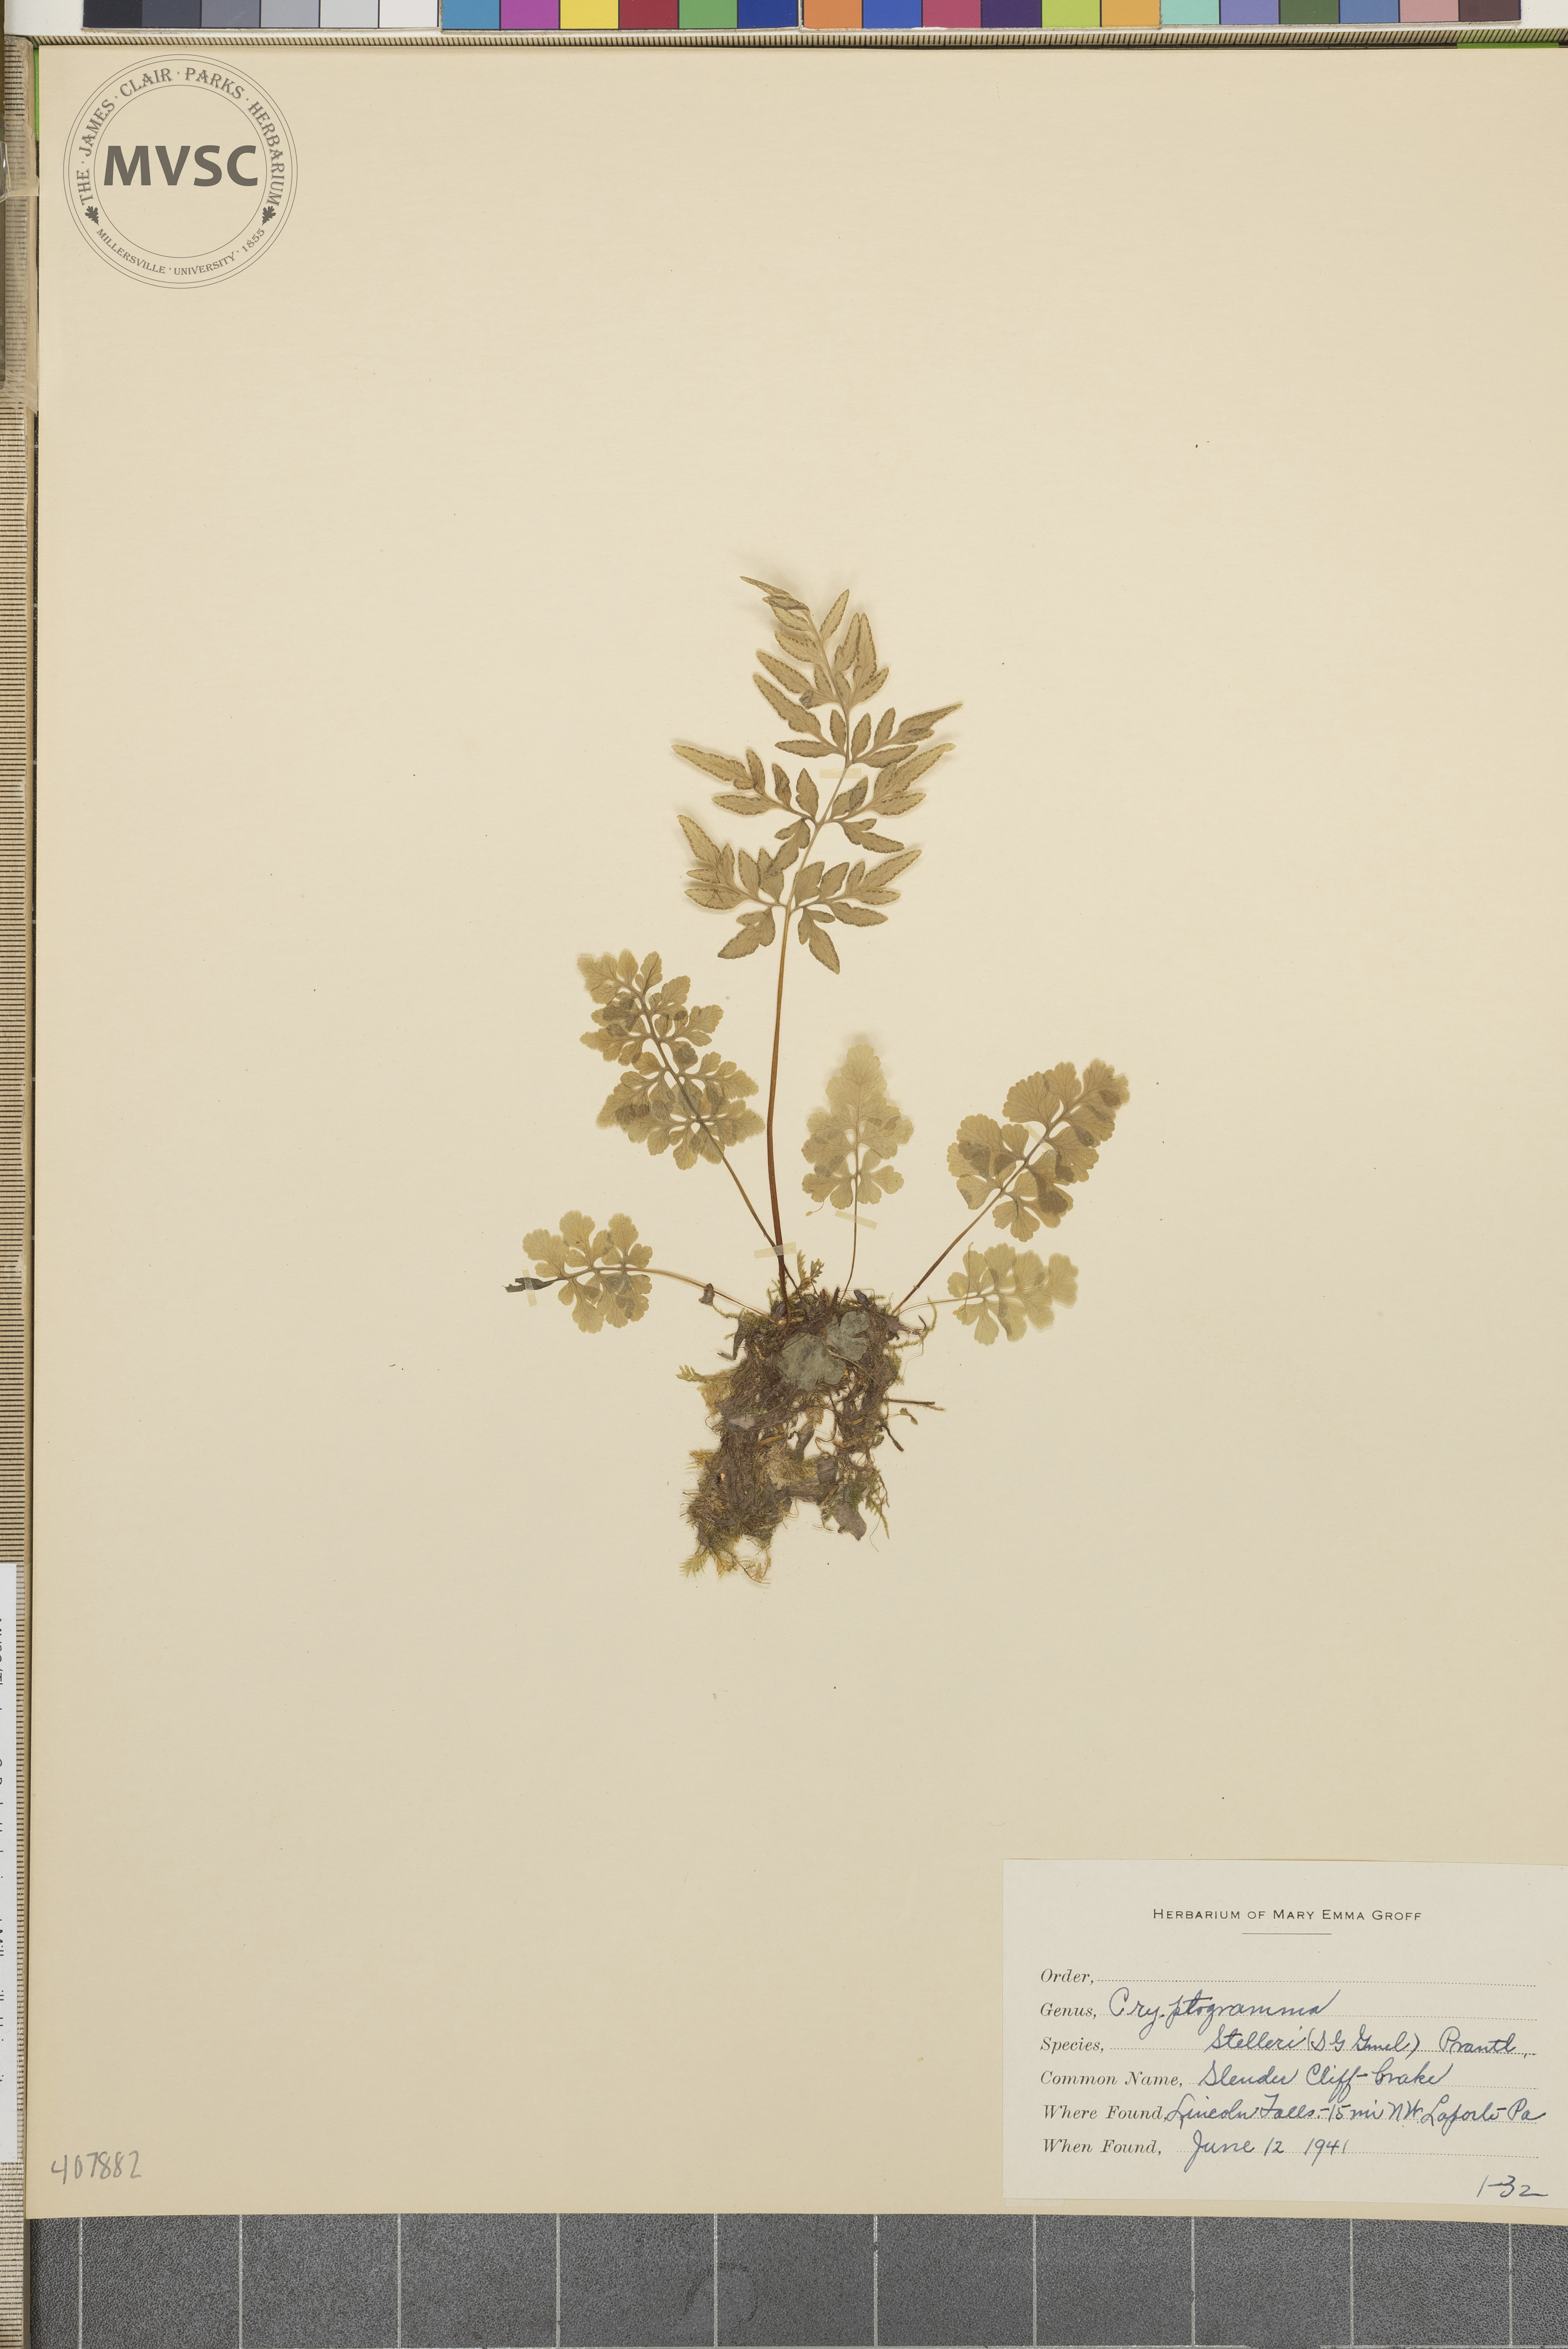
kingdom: Plantae
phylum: Tracheophyta
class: Polypodiopsida
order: Polypodiales
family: Pteridaceae
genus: Cryptogramma
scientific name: Cryptogramma stelleri
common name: Cliff-brake
